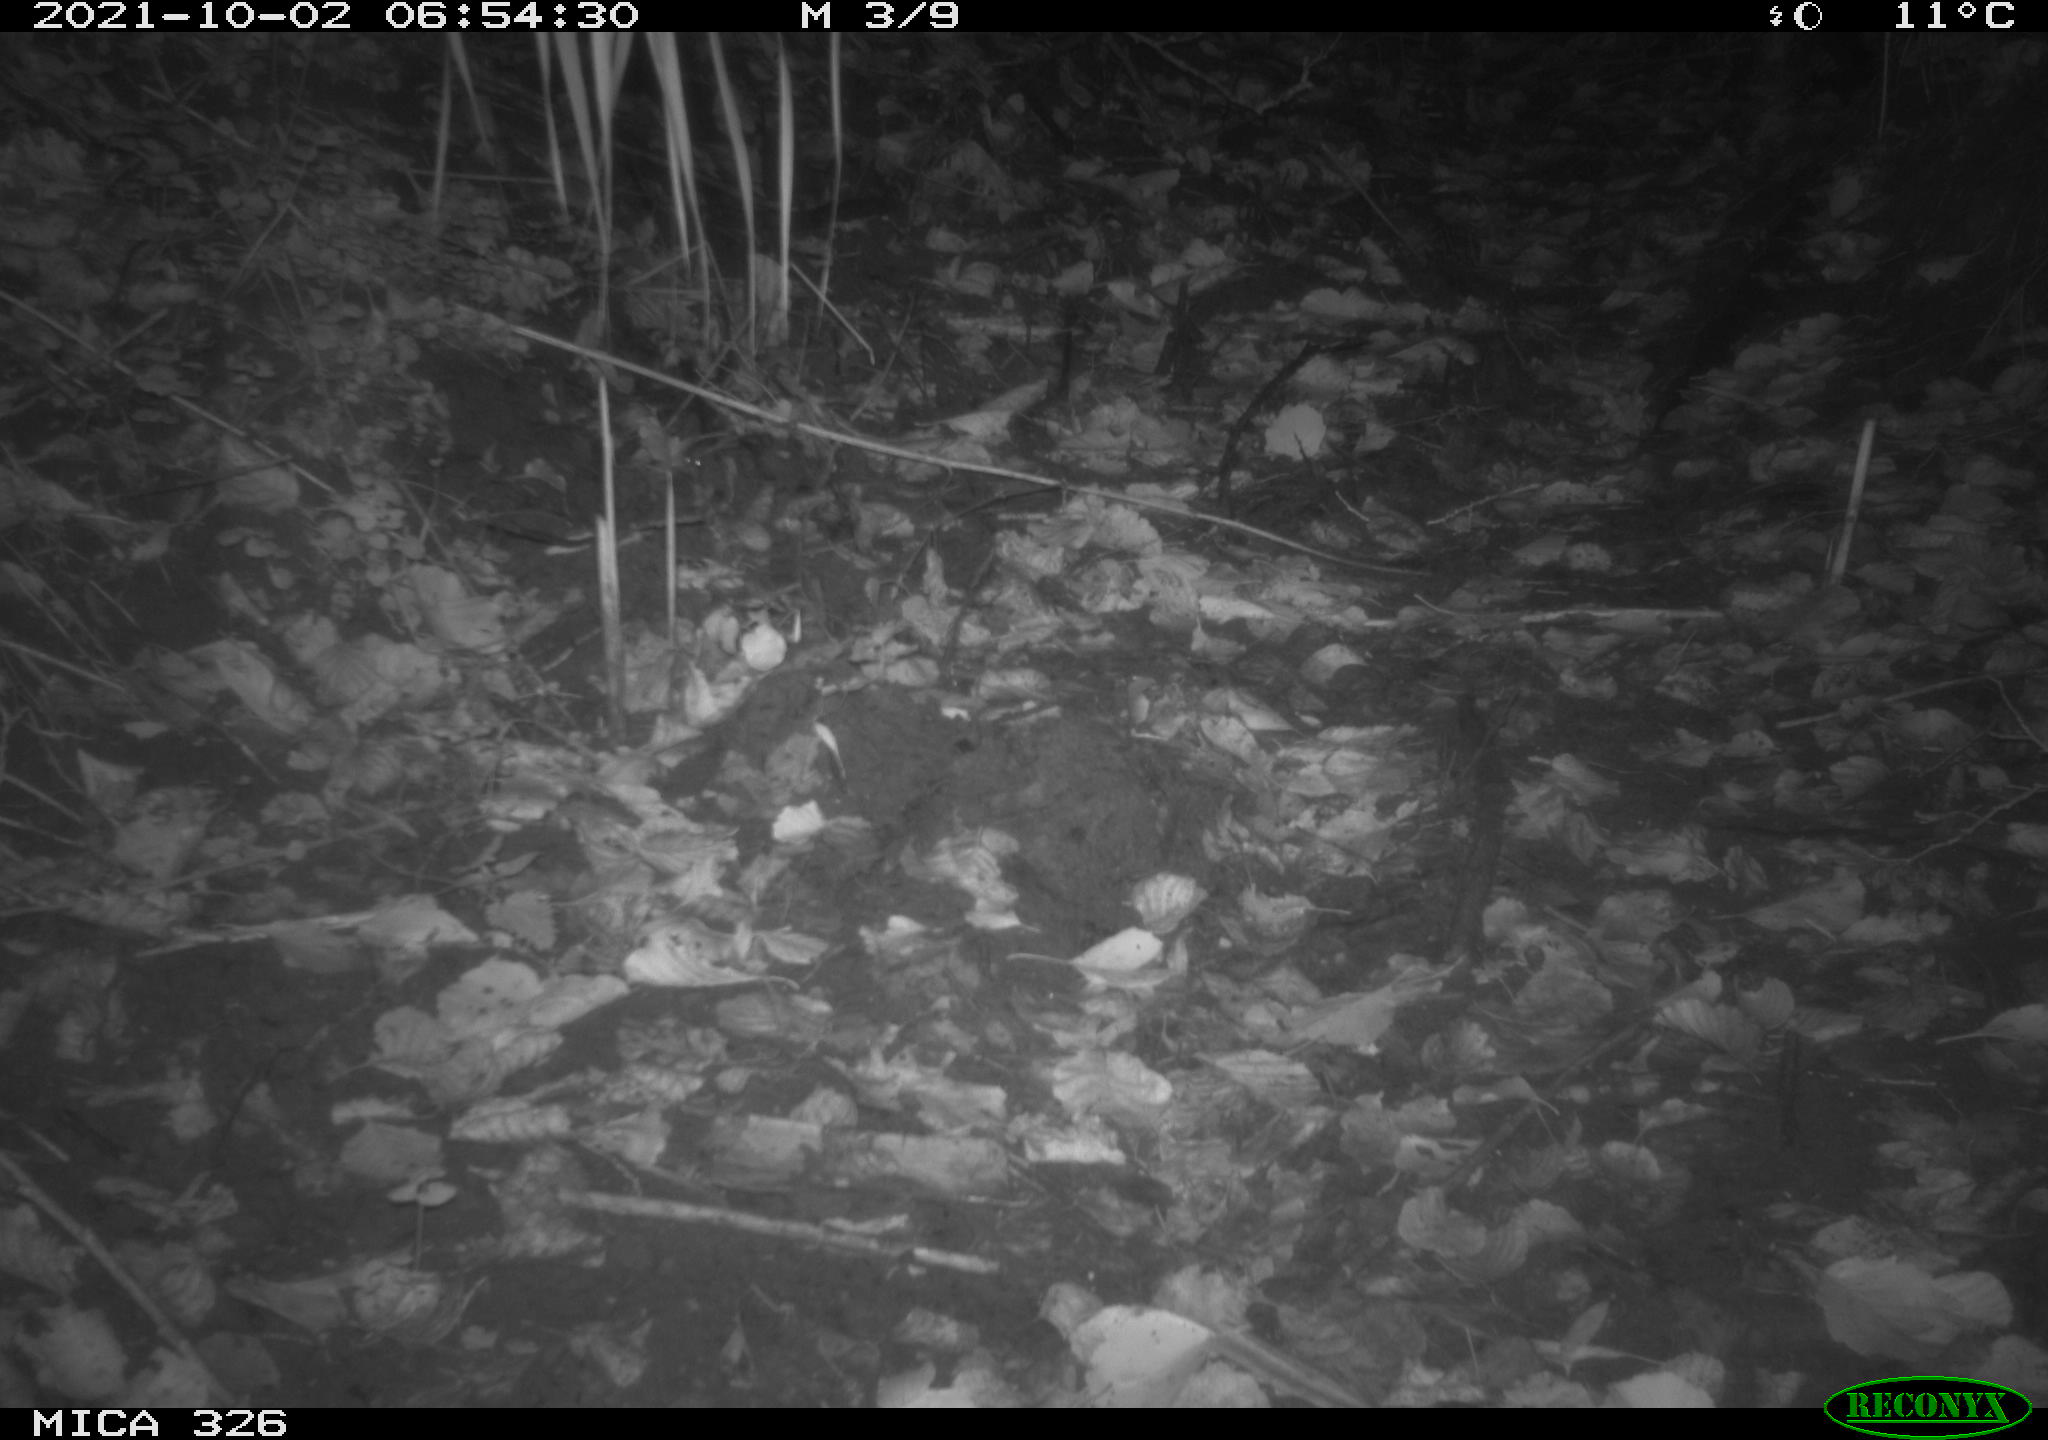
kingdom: Animalia
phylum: Chordata
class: Mammalia
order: Rodentia
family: Muridae
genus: Rattus
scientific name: Rattus norvegicus
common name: Brown rat
